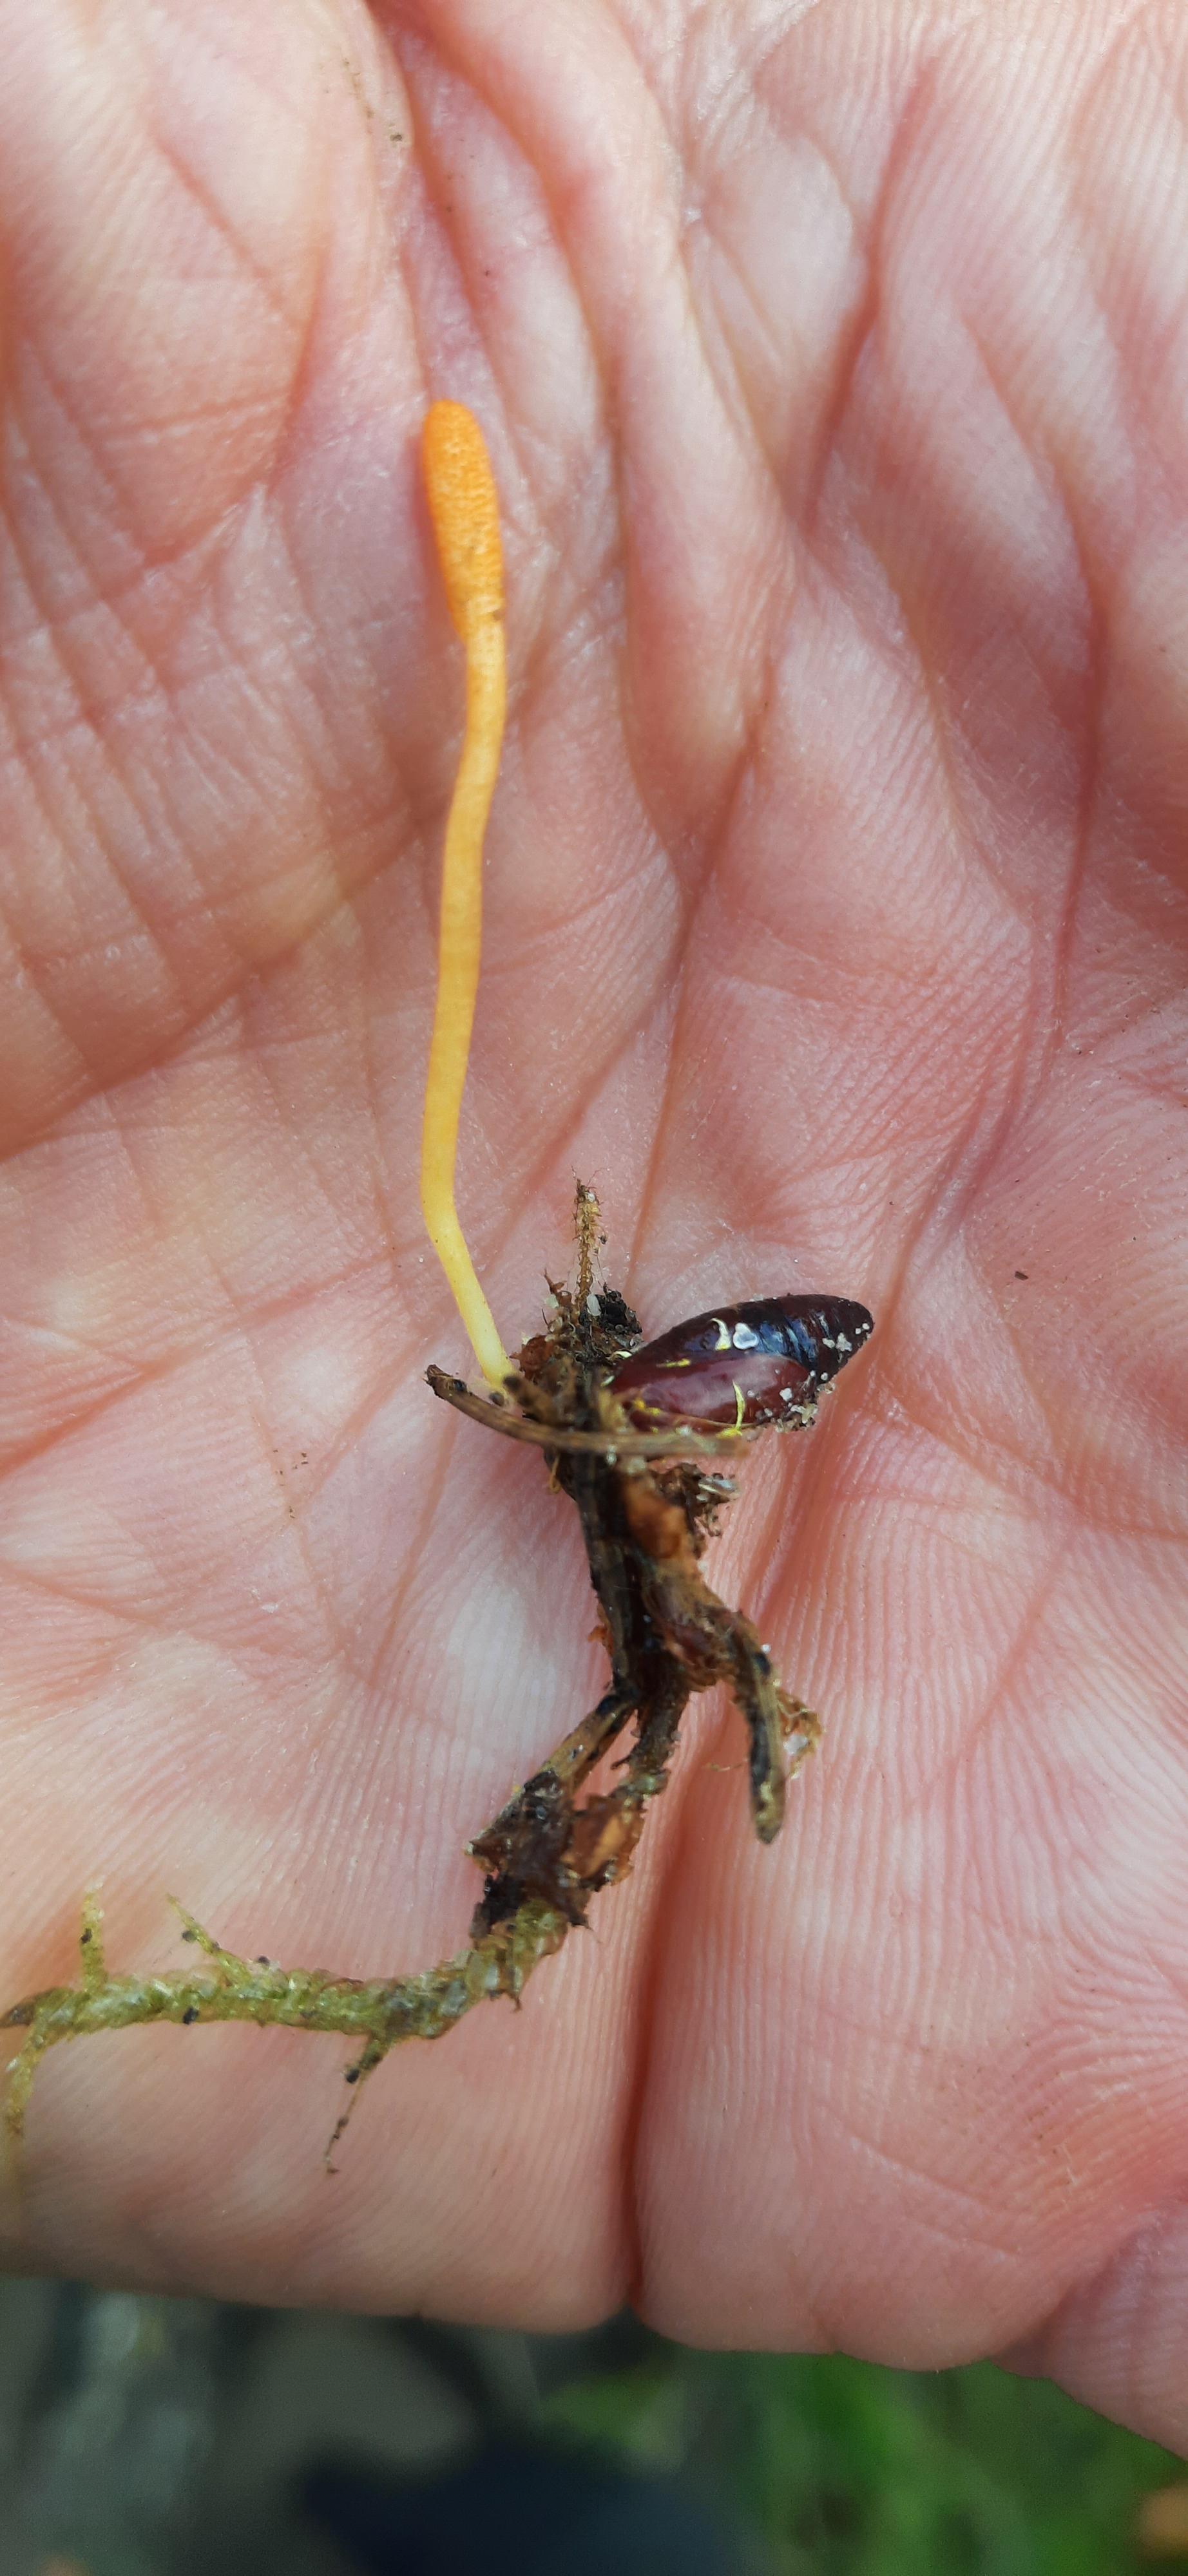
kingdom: Fungi
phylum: Ascomycota
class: Sordariomycetes
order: Hypocreales
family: Cordycipitaceae
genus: Cordyceps
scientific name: Cordyceps militaris
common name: puppe-snyltekølle
